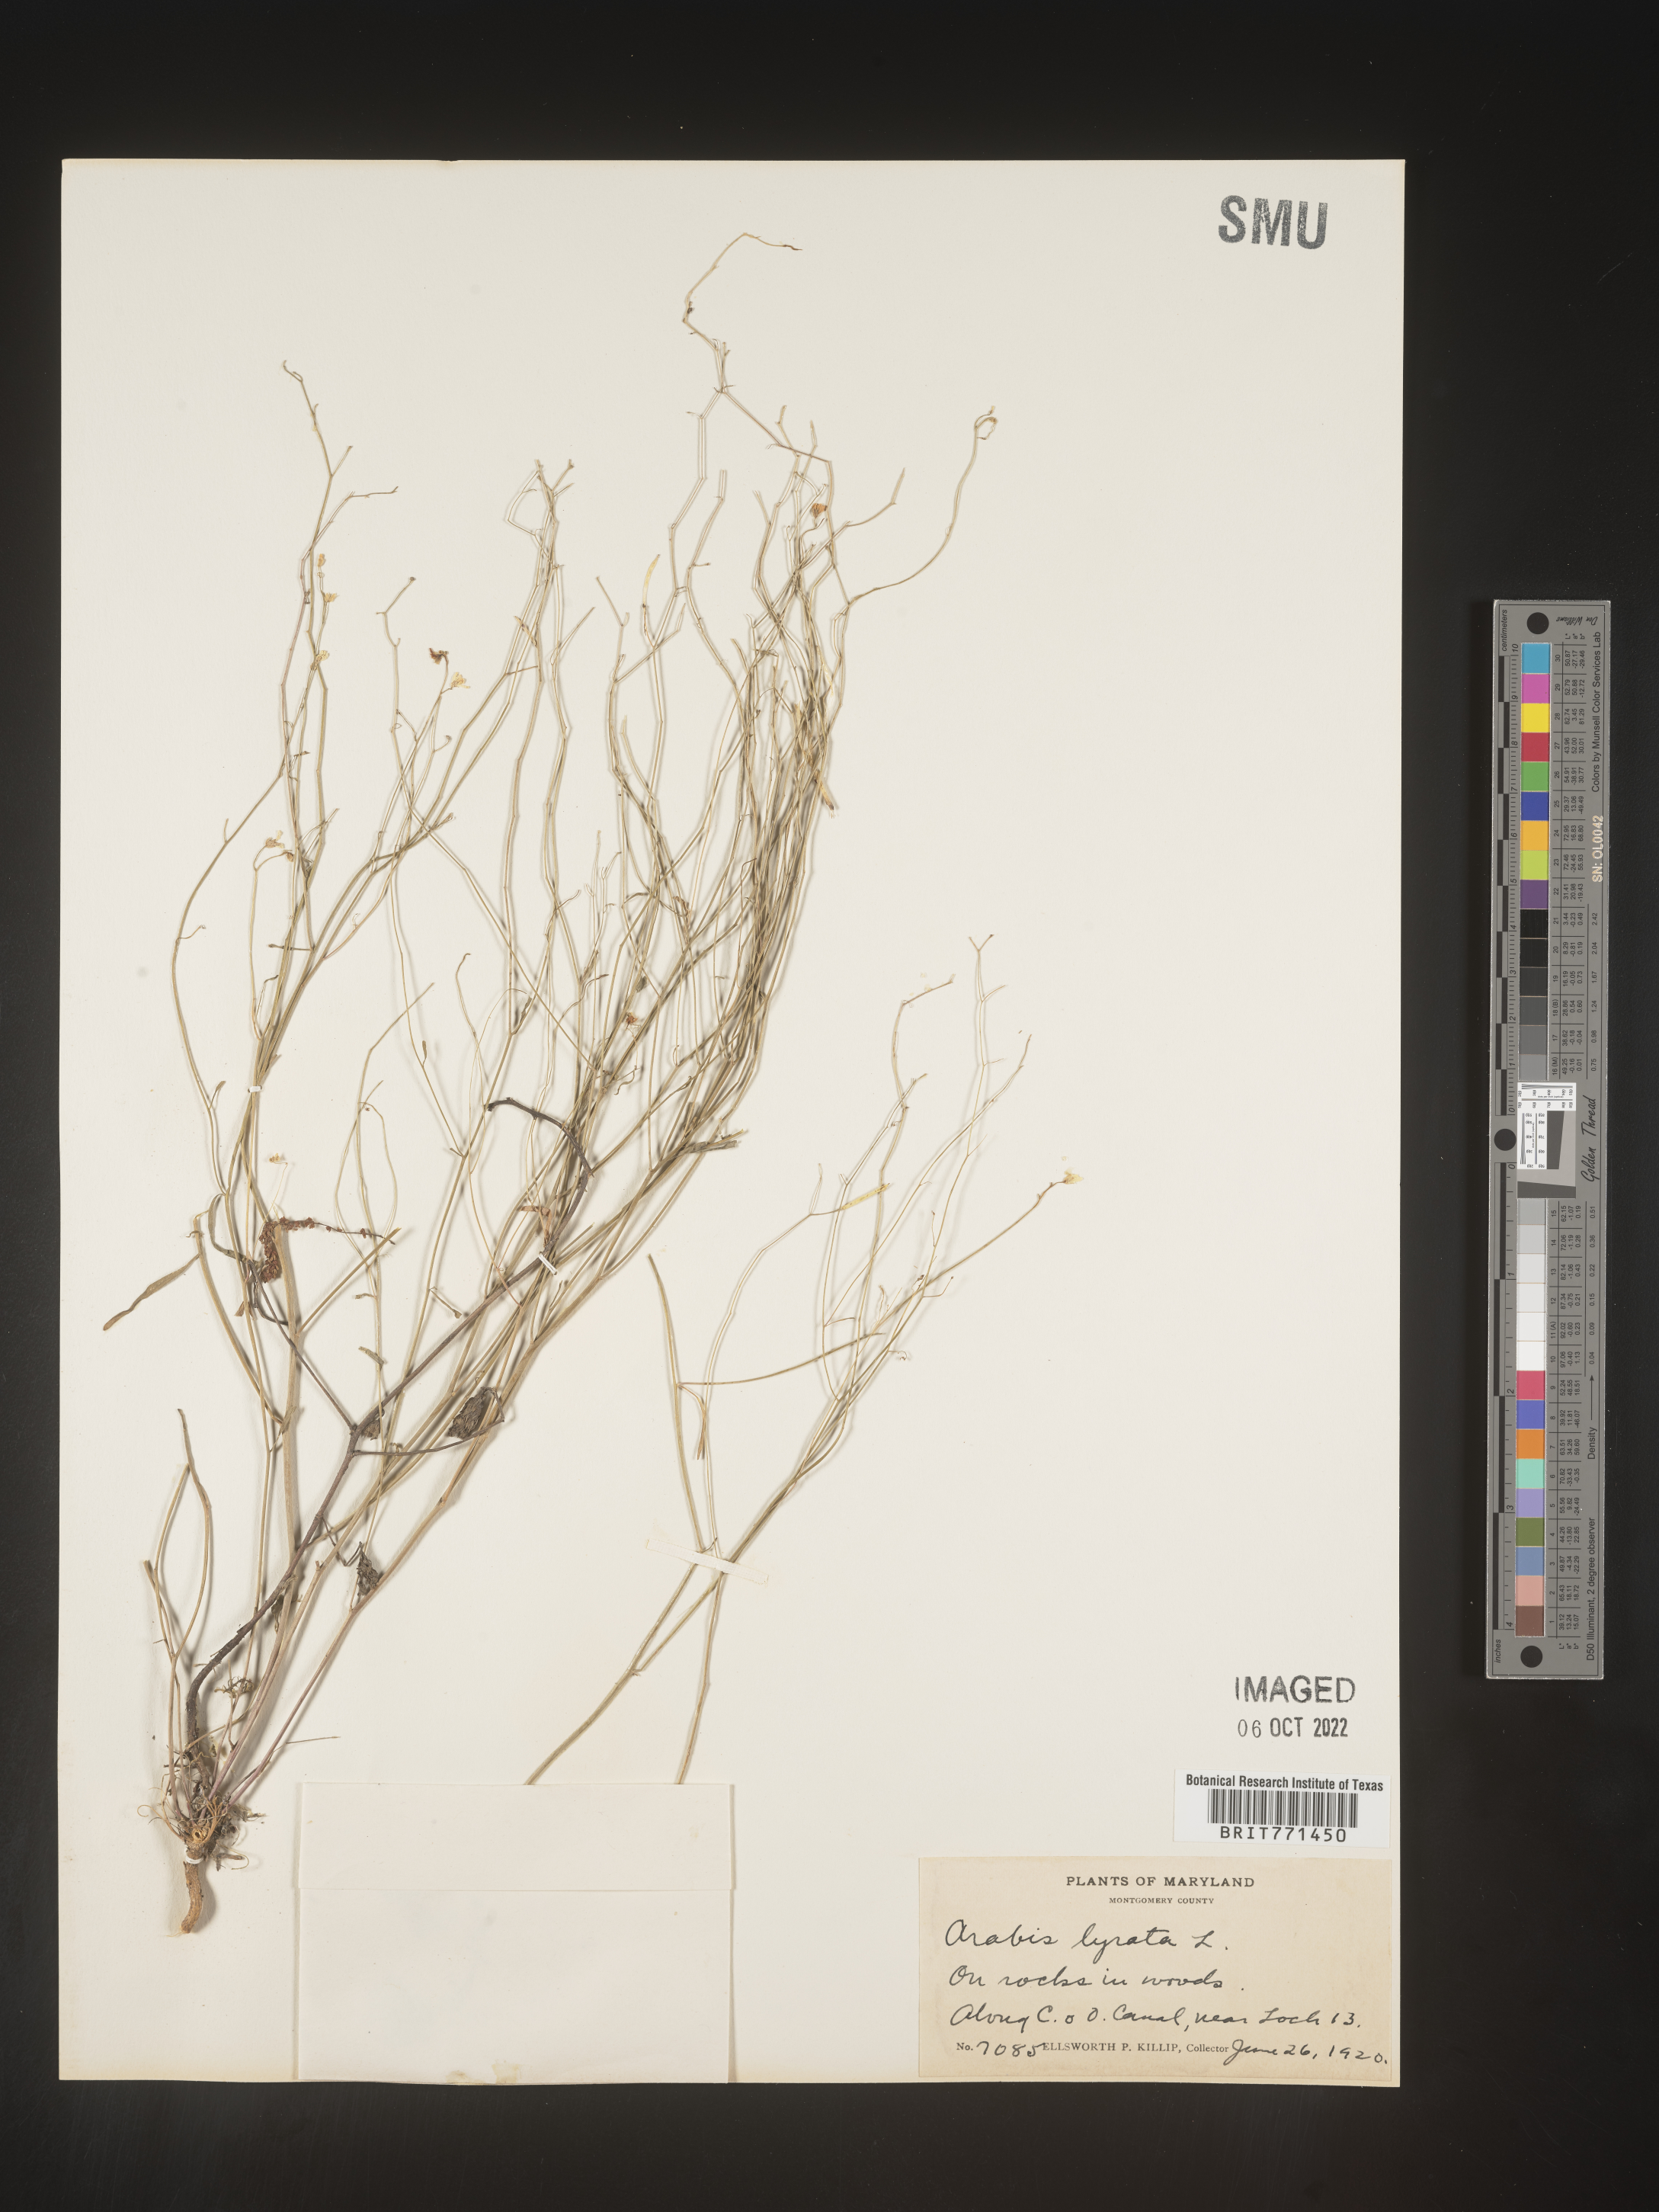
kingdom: Plantae
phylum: Tracheophyta
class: Magnoliopsida
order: Brassicales
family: Brassicaceae
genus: Arabidopsis
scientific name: Arabidopsis lyrata
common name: Lyrate rockcress
